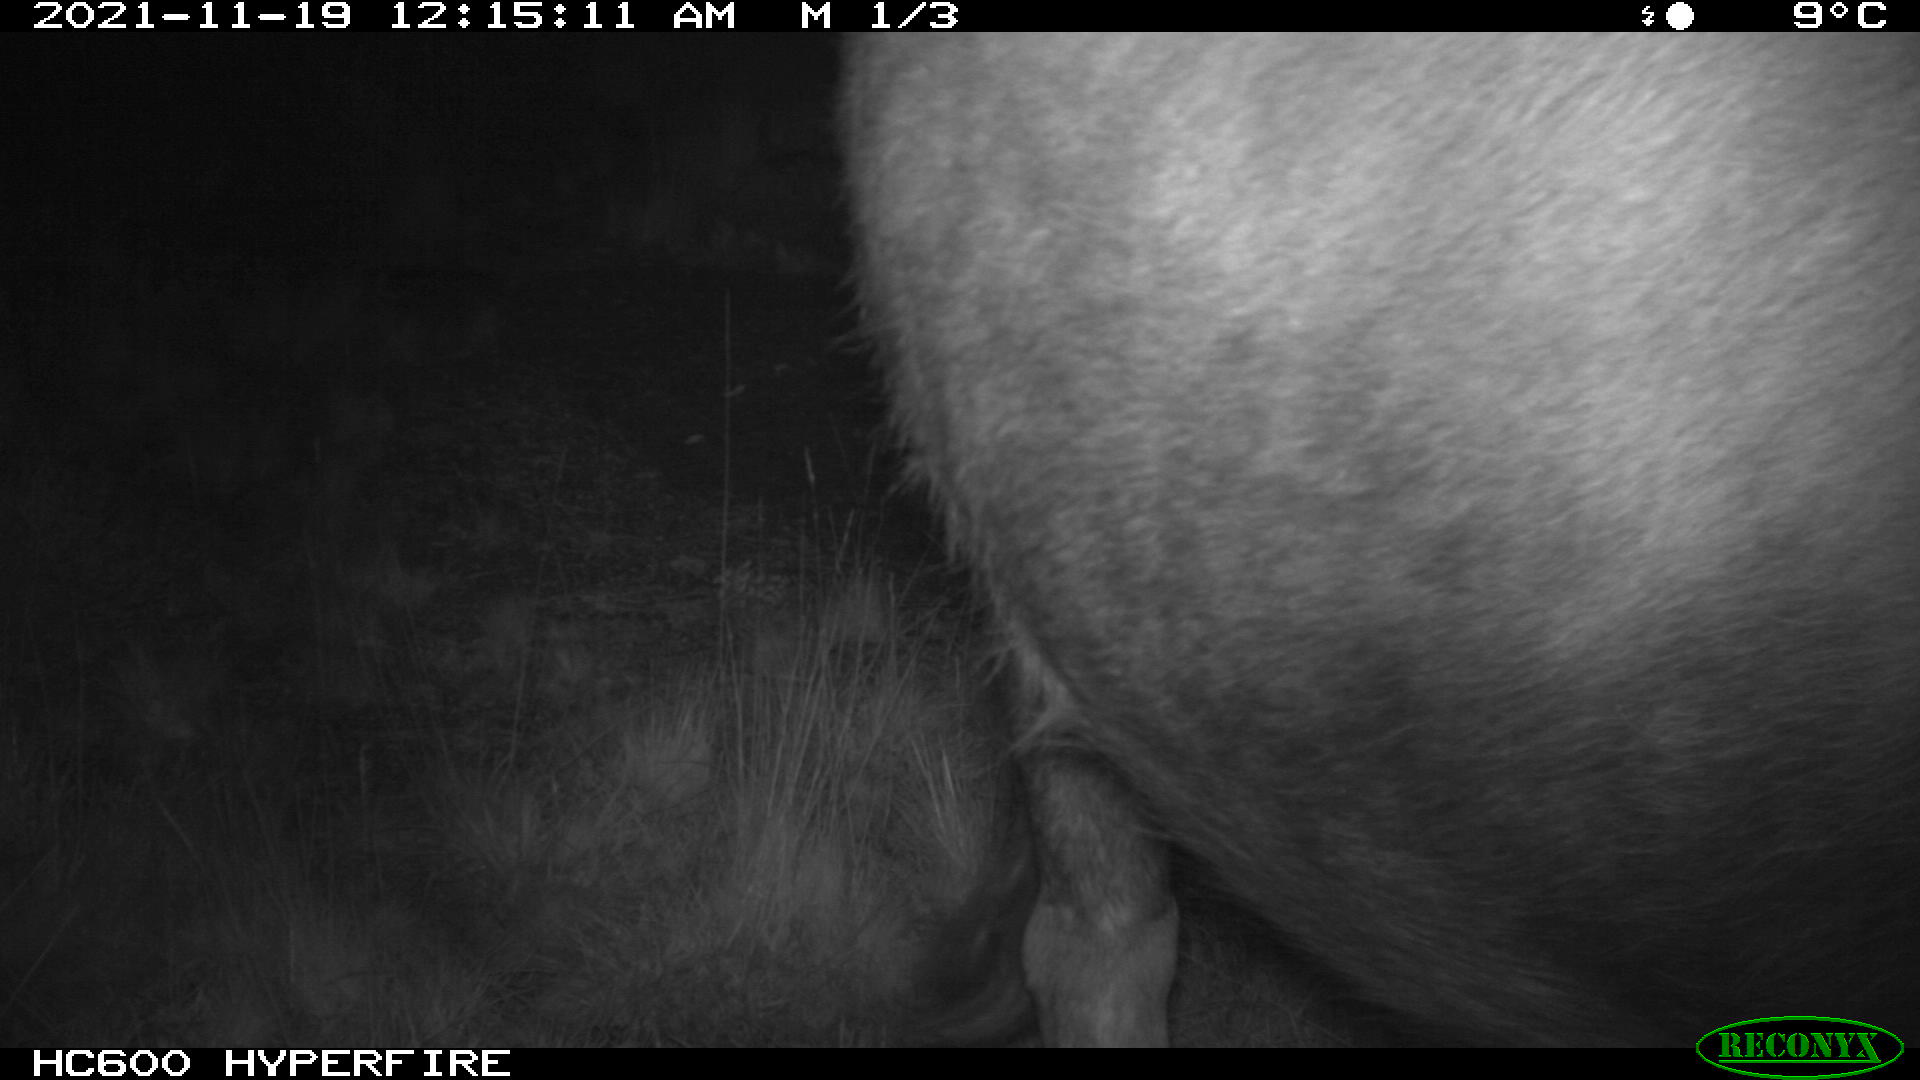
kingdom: Animalia
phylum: Chordata
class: Mammalia
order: Artiodactyla
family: Bovidae
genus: Bos
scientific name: Bos taurus
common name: Domesticated cattle
